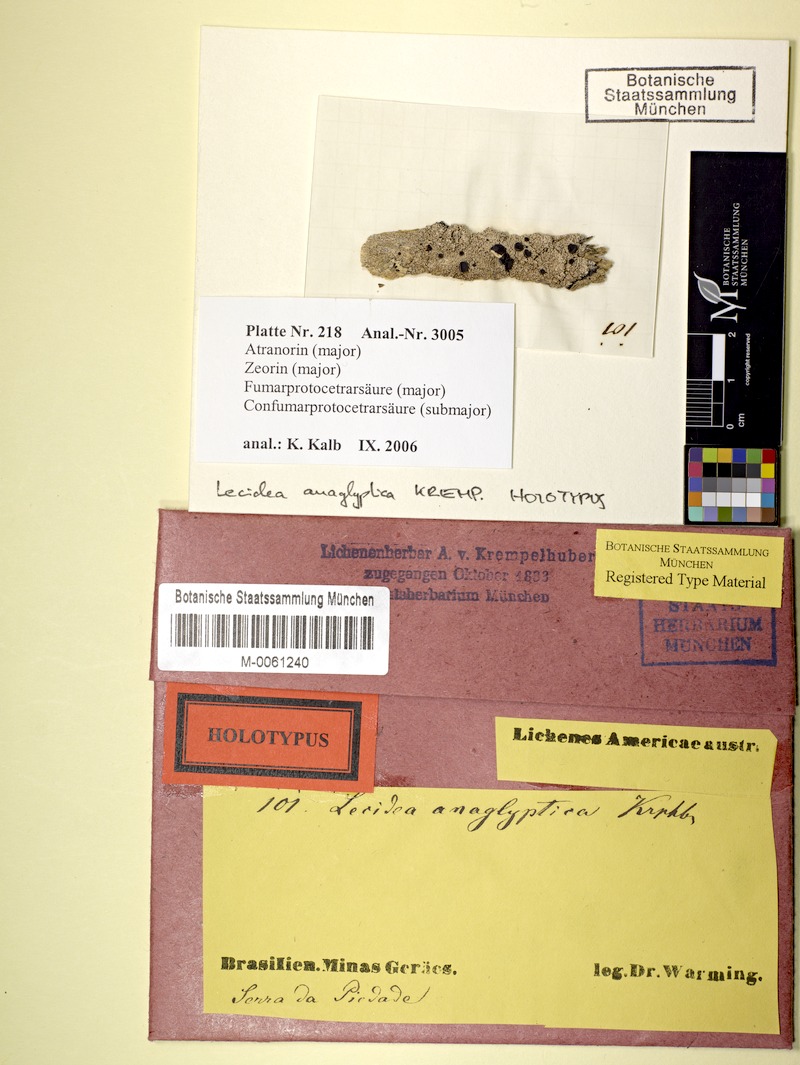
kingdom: Fungi
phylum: Ascomycota
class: Lecanoromycetes
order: Lecanorales
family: Ramalinaceae
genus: Megalaria
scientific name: Megalaria anaglyptica
